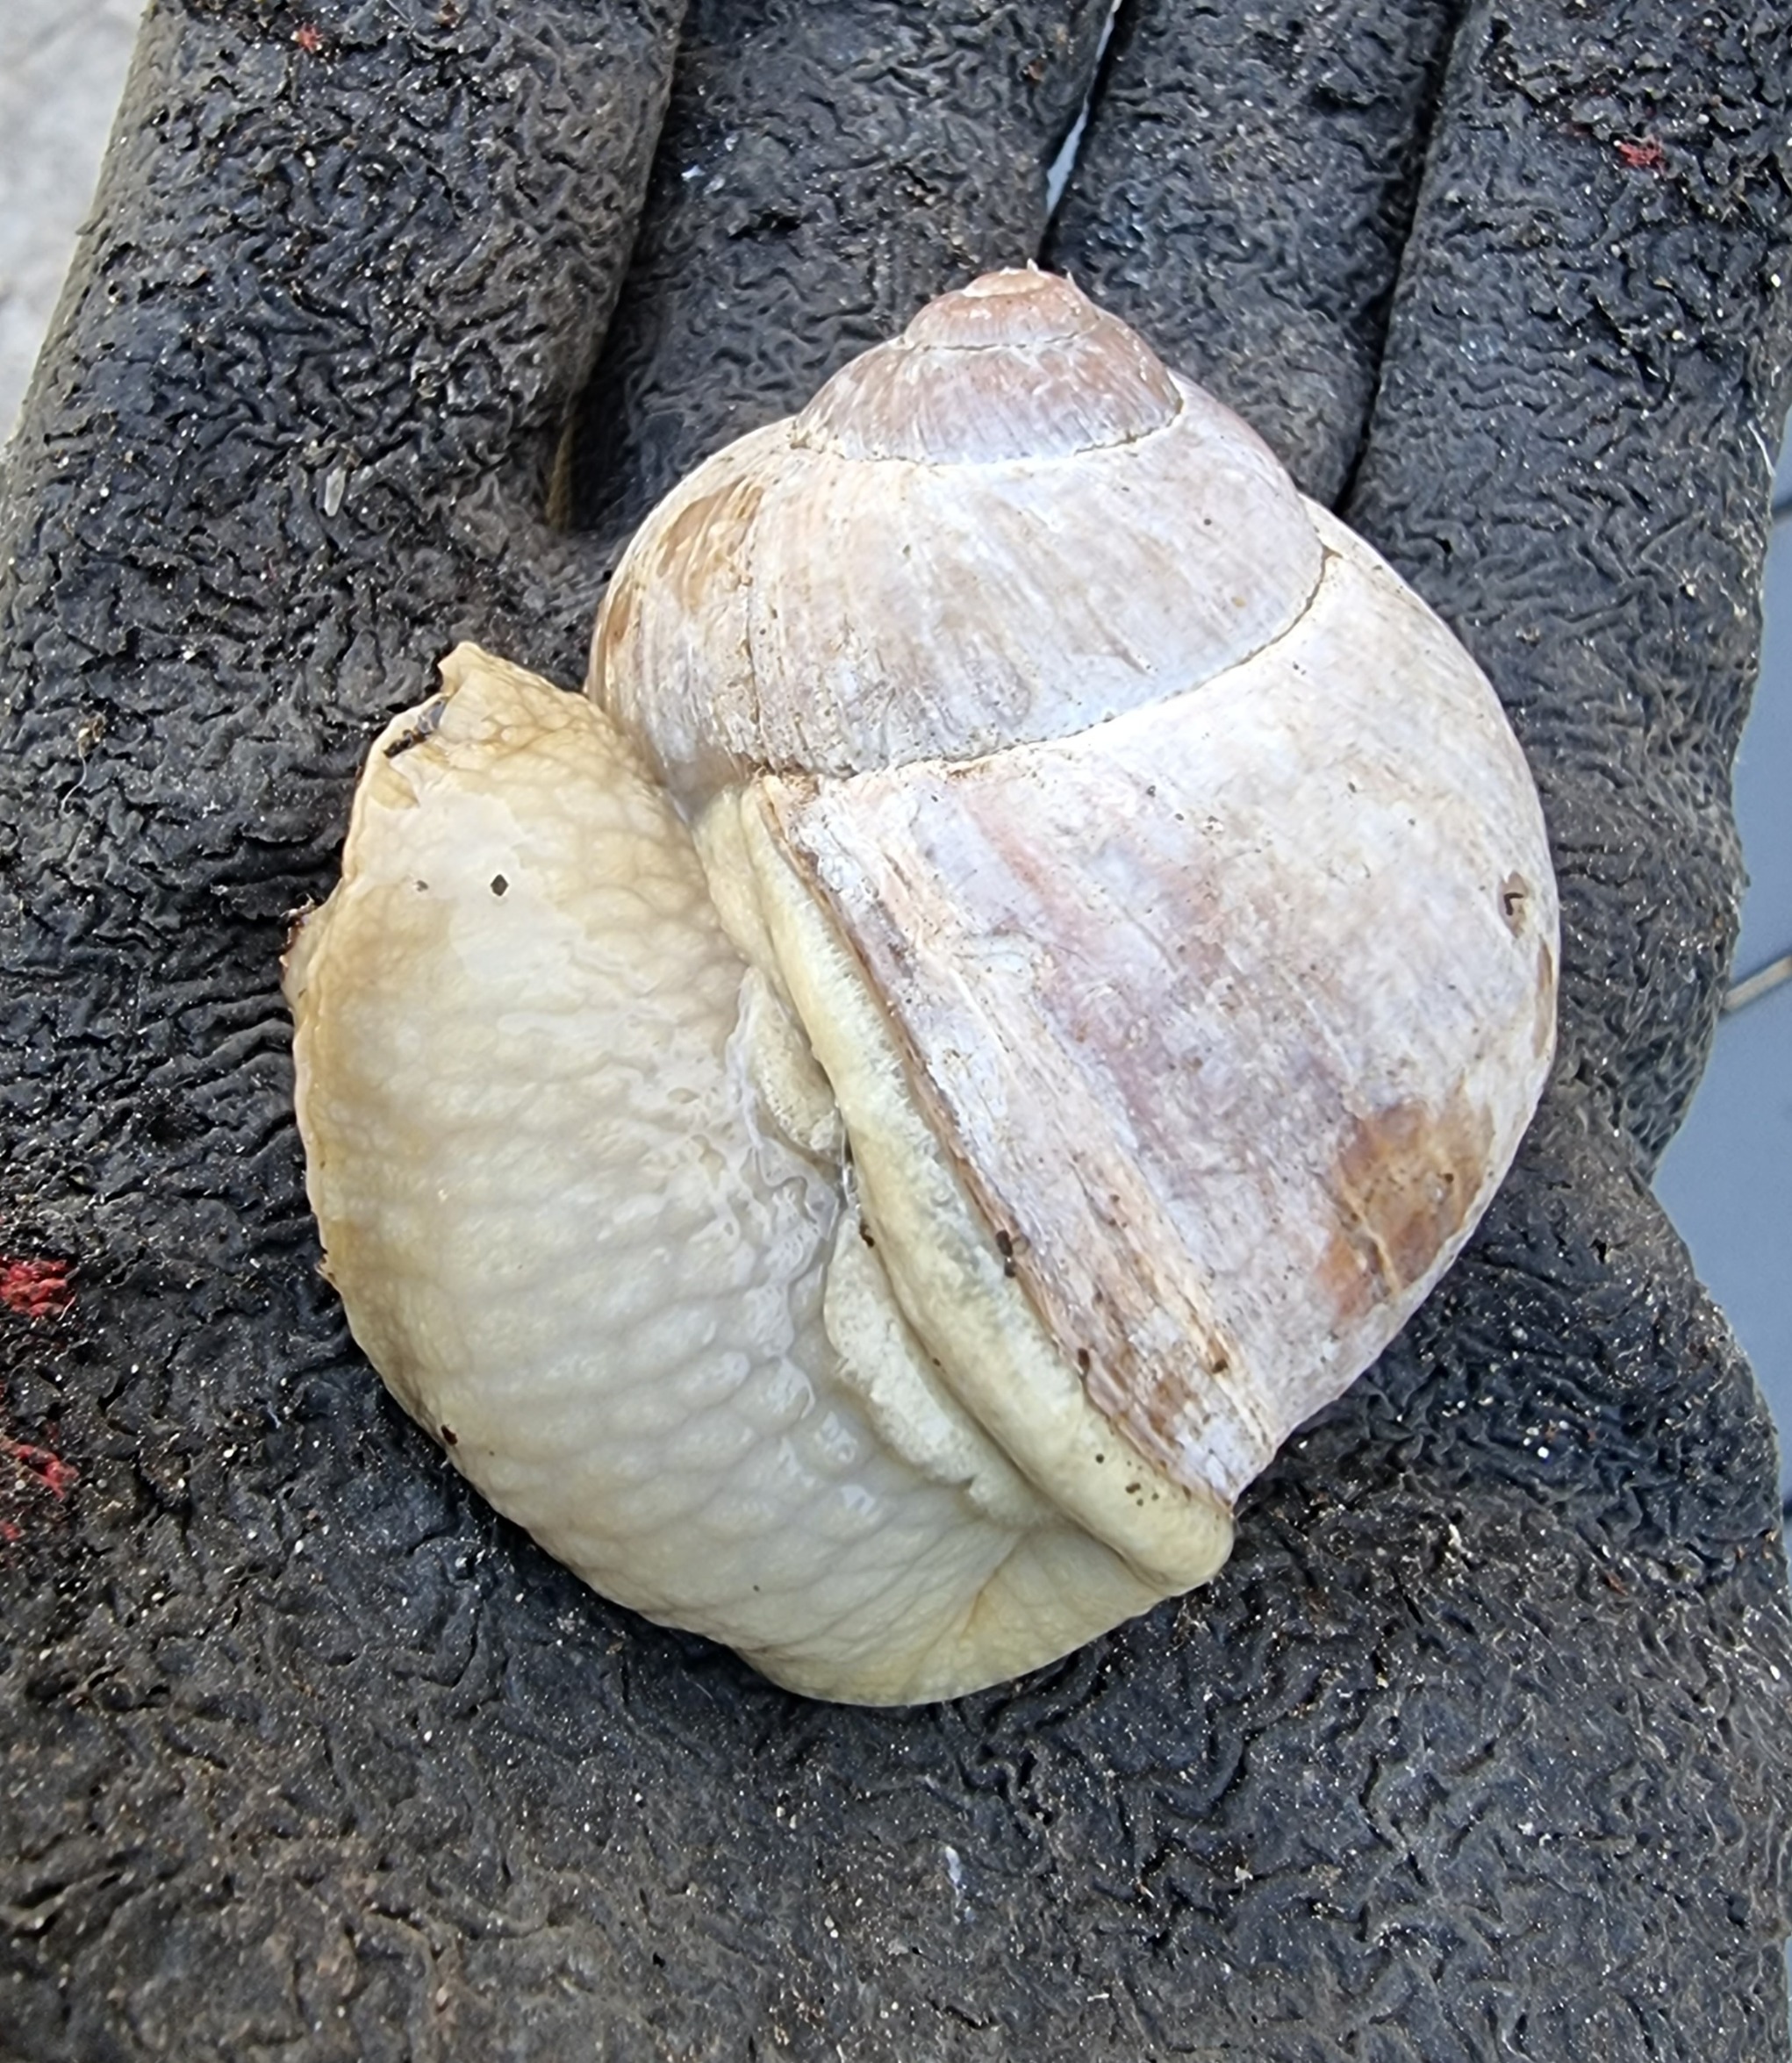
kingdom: Animalia
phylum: Mollusca
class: Gastropoda
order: Stylommatophora
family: Helicidae
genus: Helix
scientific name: Helix pomatia
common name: Vinbjergsnegl
